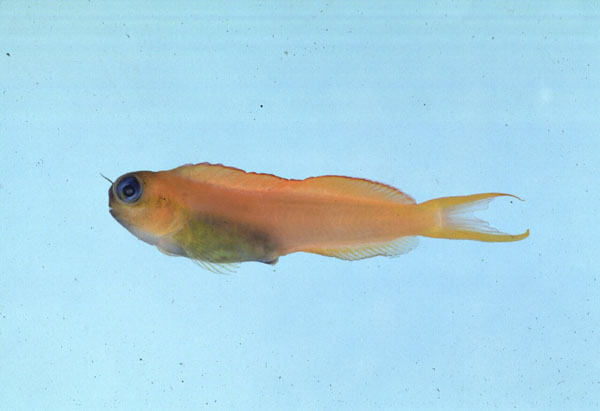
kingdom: Animalia
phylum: Chordata
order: Perciformes
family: Blenniidae
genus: Ecsenius
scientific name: Ecsenius midas
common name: Golden blenny
